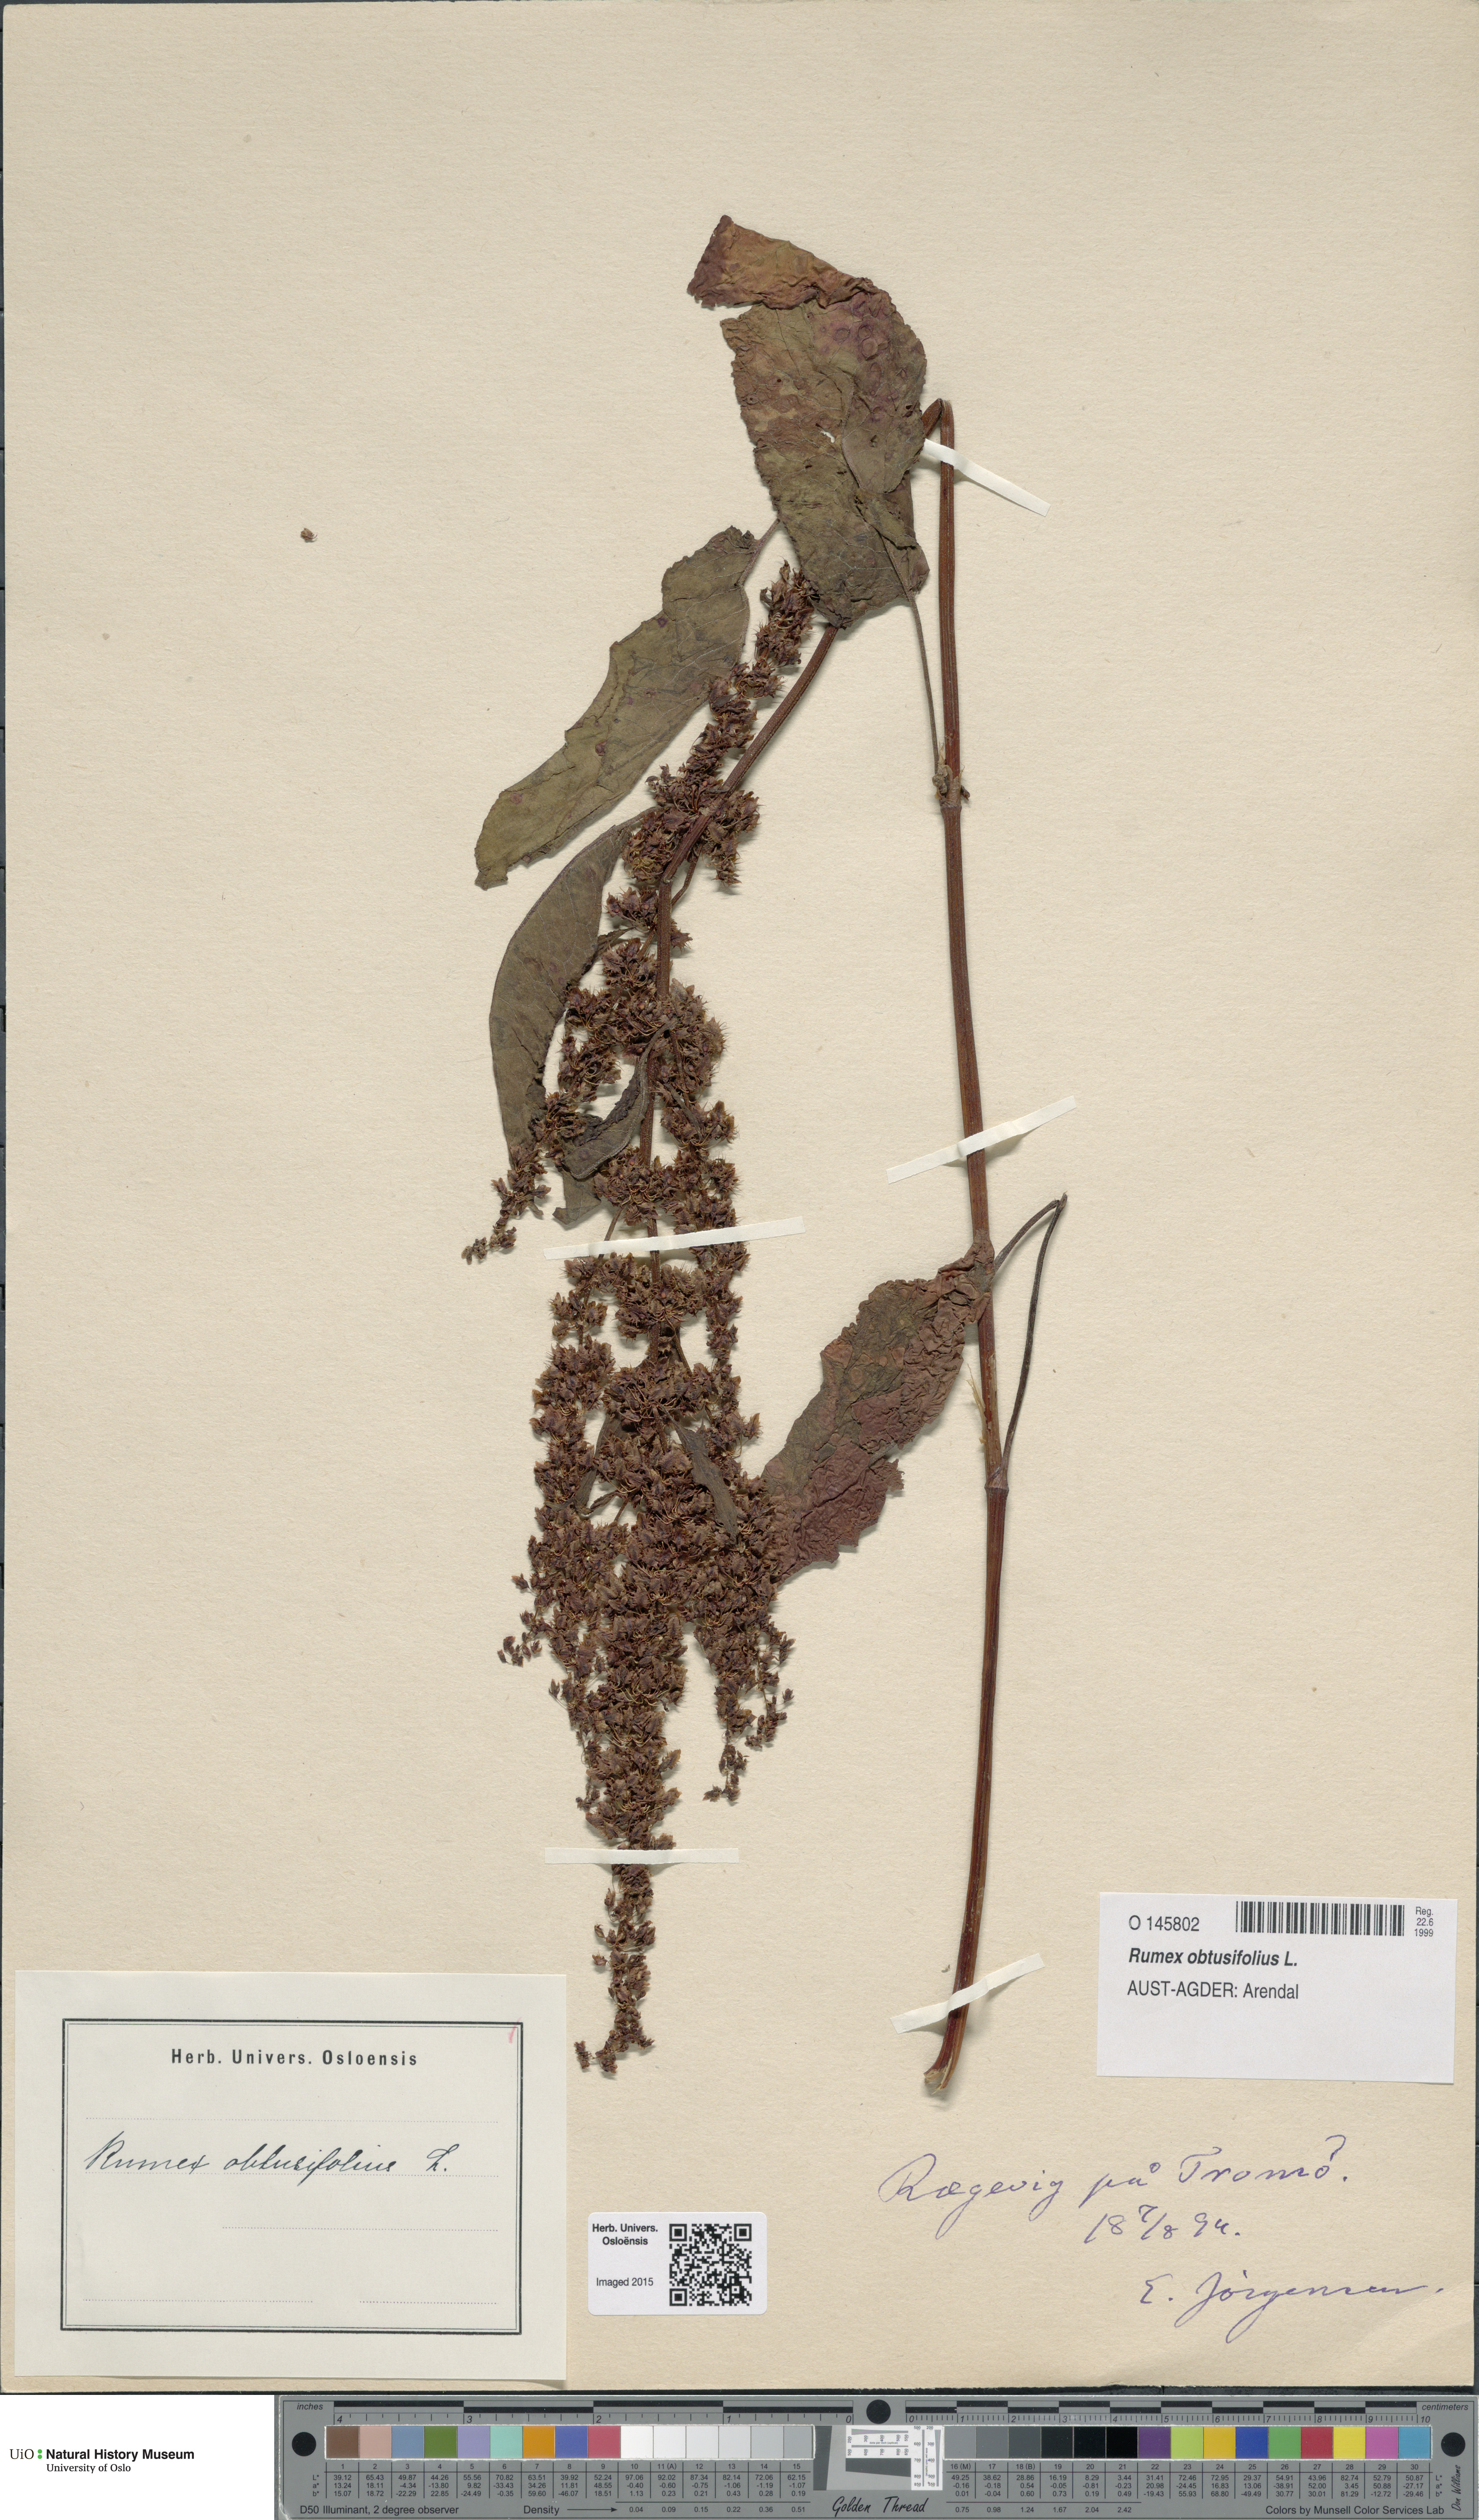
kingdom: Plantae
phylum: Tracheophyta
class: Magnoliopsida
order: Caryophyllales
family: Polygonaceae
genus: Rumex
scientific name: Rumex obtusifolius
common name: Bitter dock
